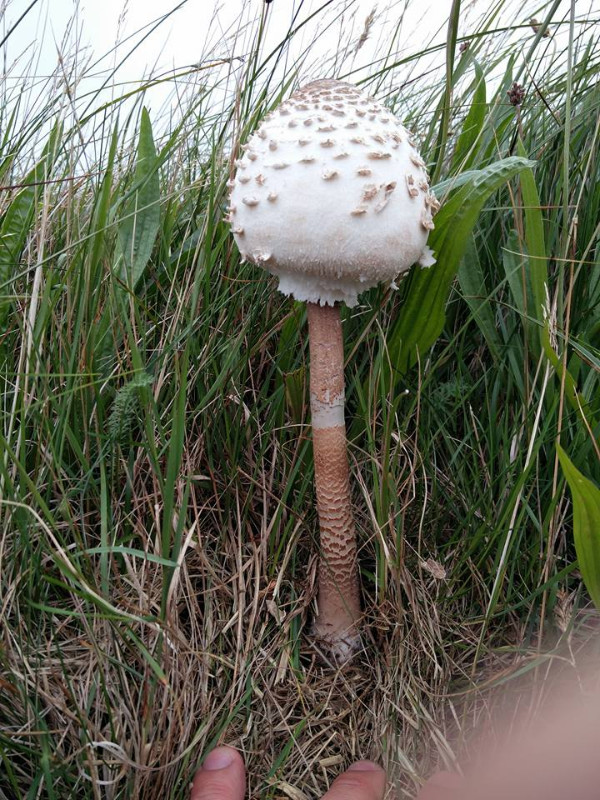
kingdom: Fungi
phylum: Basidiomycota
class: Agaricomycetes
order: Agaricales
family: Agaricaceae
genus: Macrolepiota
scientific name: Macrolepiota procera
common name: stor kæmpeparasolhat
